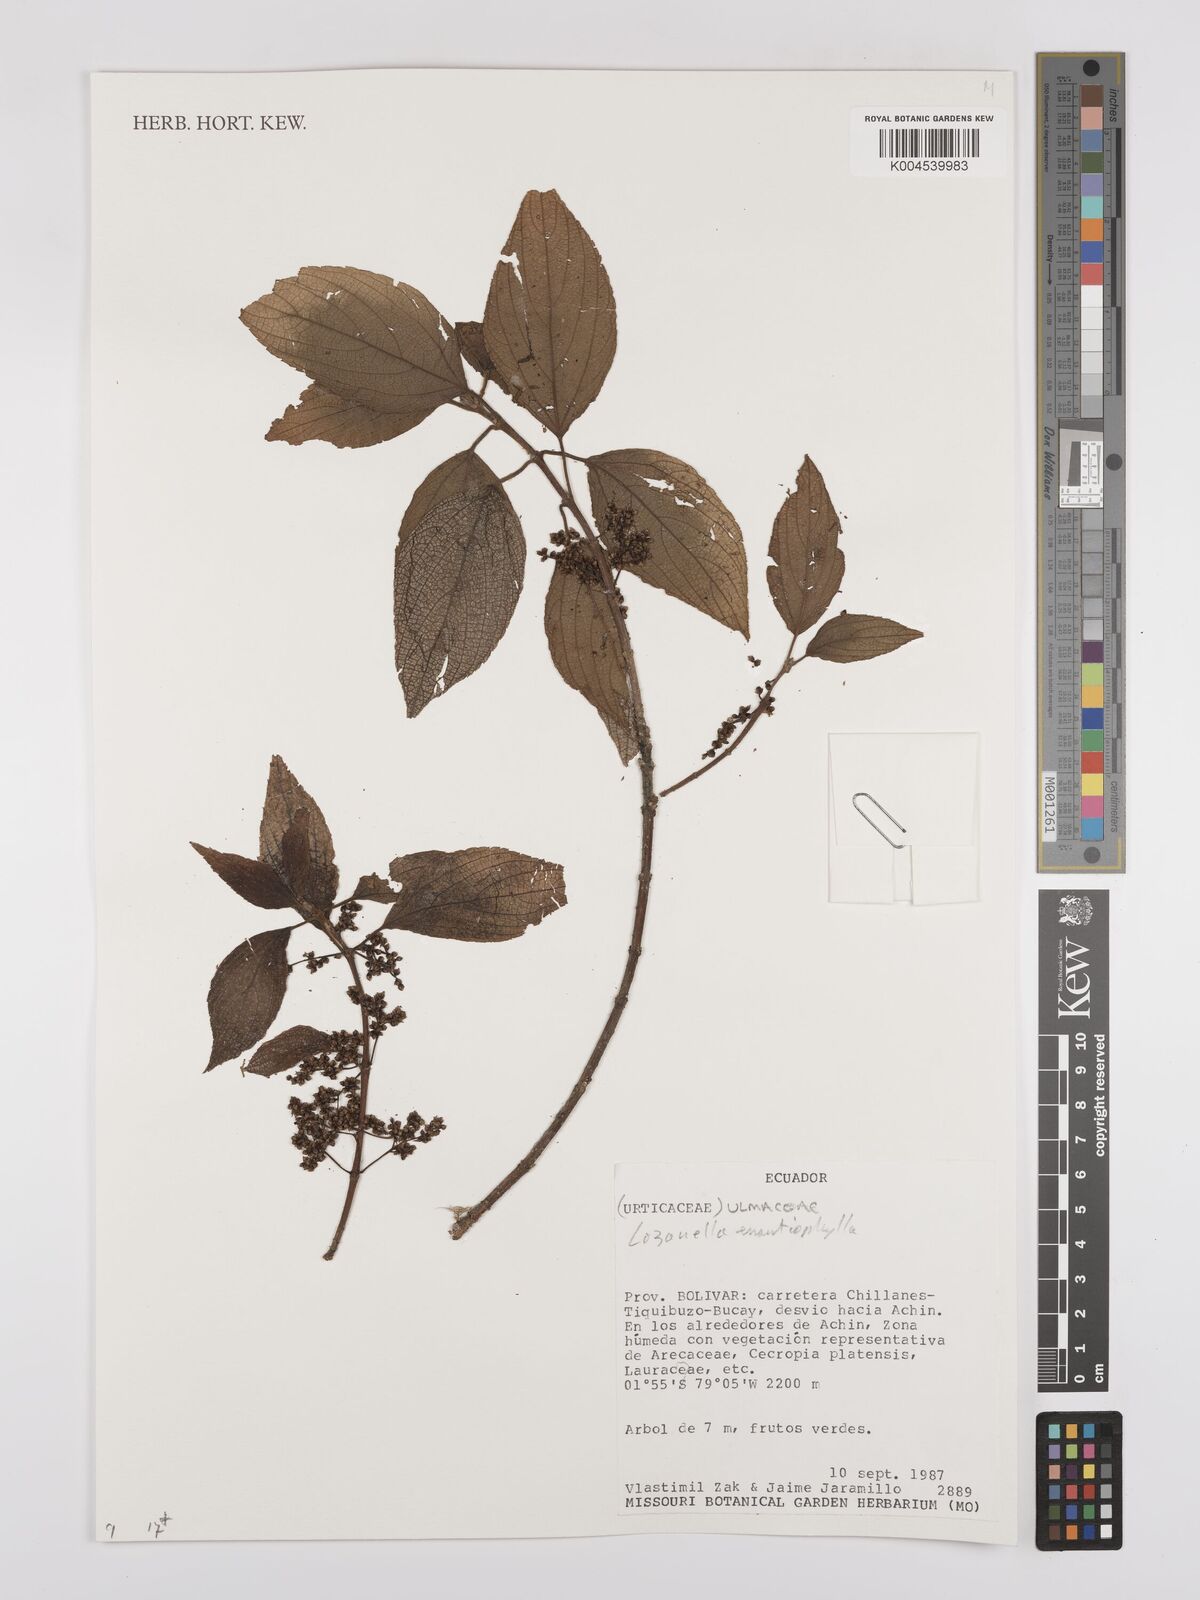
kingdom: Plantae
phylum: Tracheophyta
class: Magnoliopsida
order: Rosales
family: Cannabaceae
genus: Lozanella
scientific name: Lozanella enantiophylla
